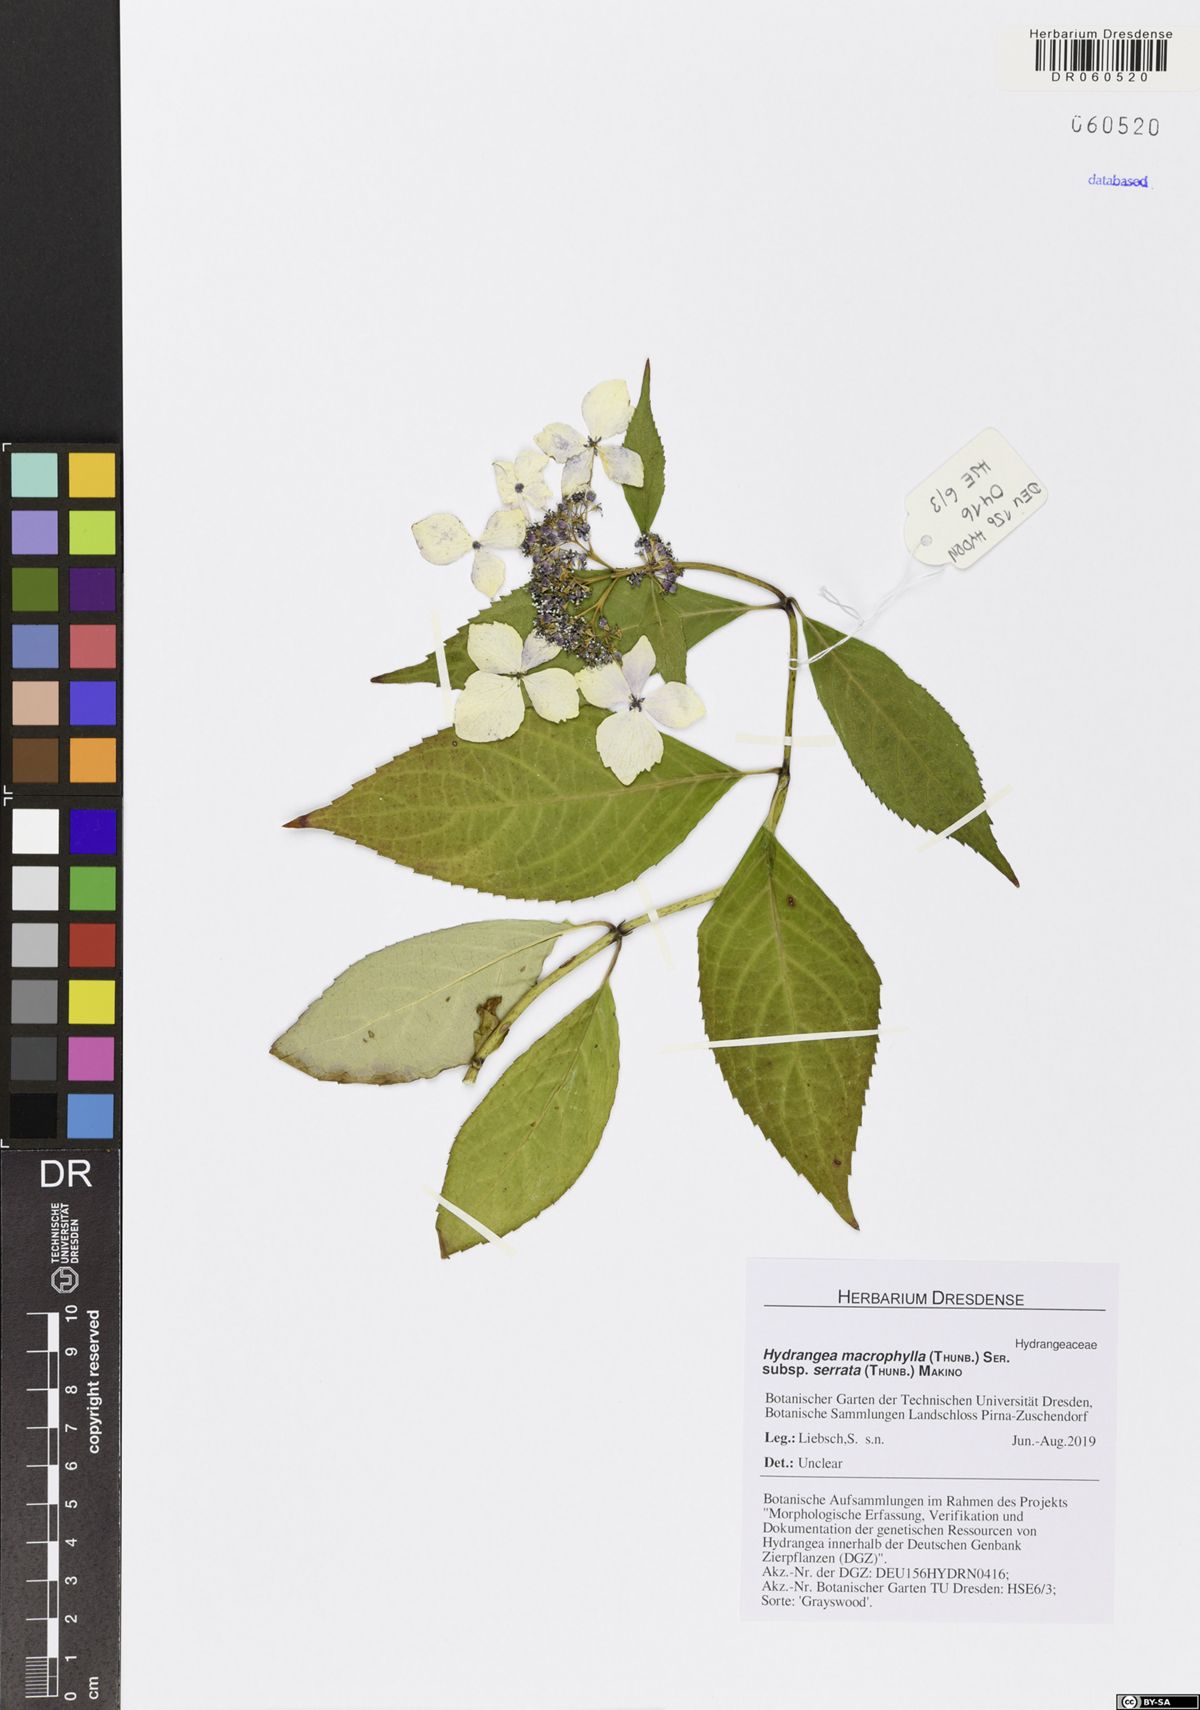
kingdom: Plantae
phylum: Tracheophyta
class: Magnoliopsida
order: Cornales
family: Hydrangeaceae
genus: Hydrangea
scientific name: Hydrangea serrata
